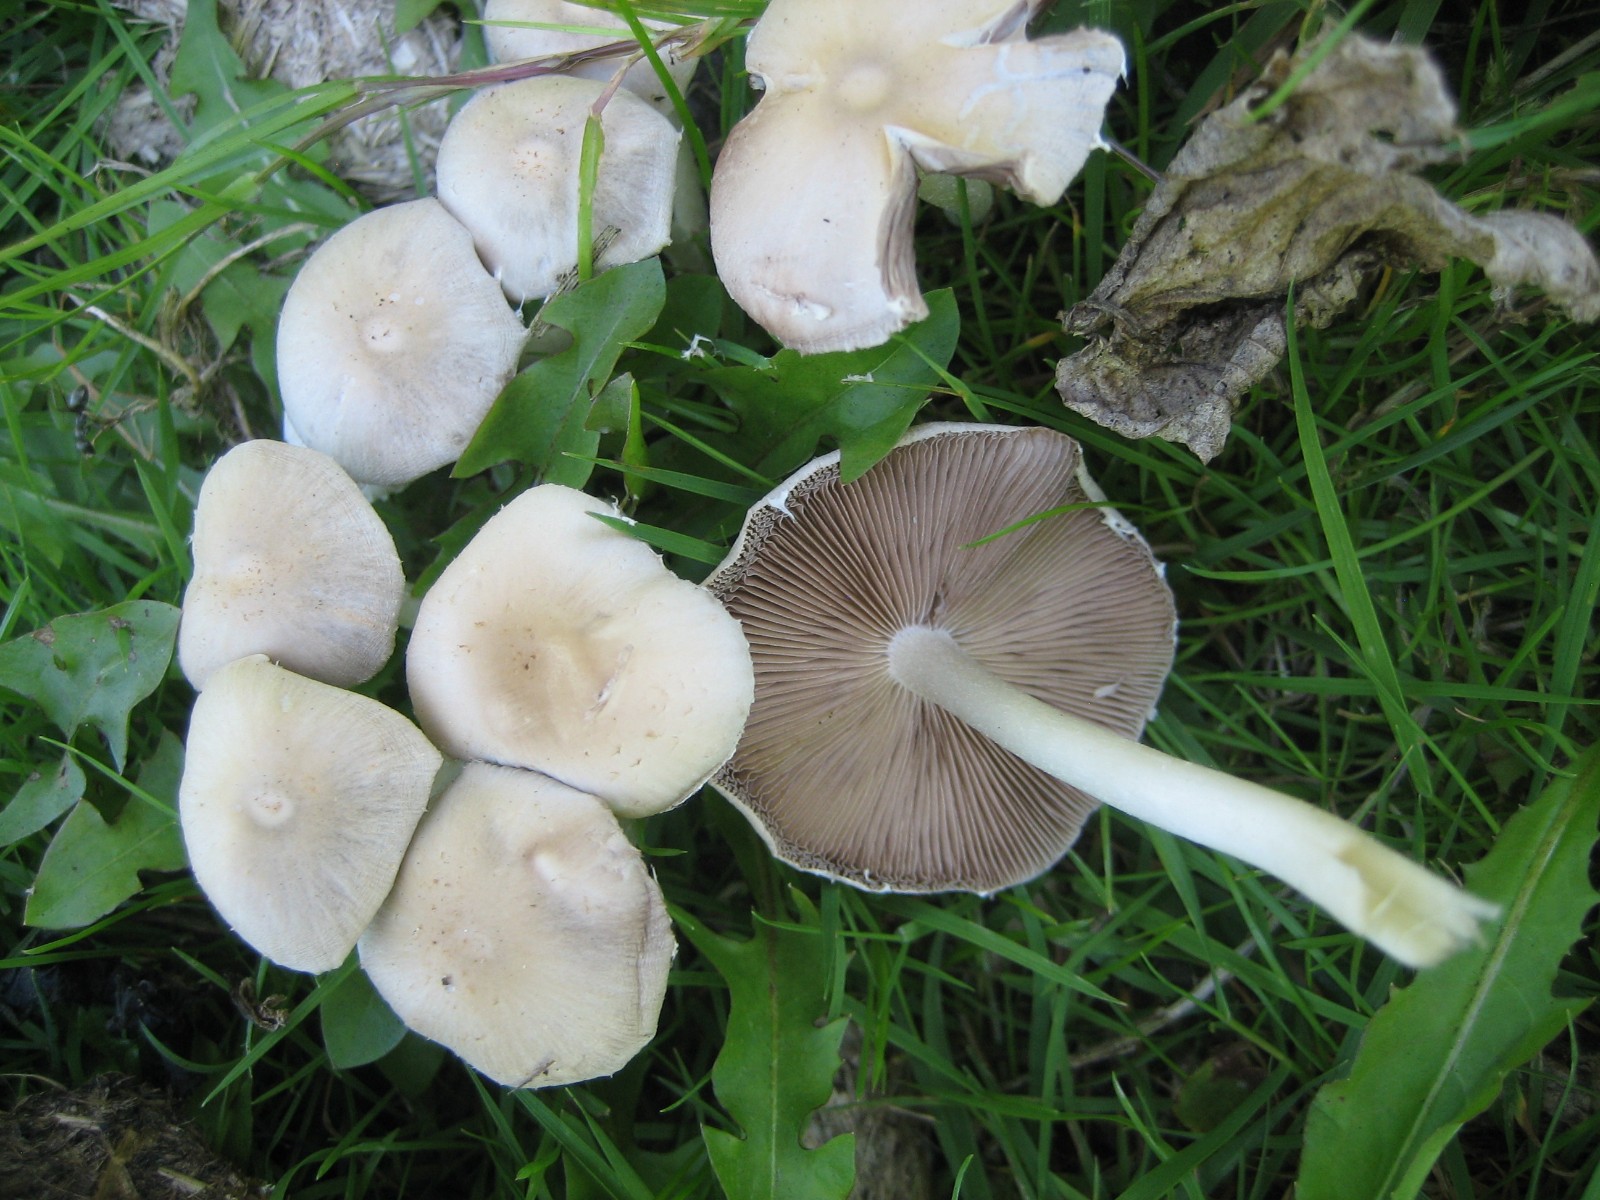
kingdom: Fungi
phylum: Basidiomycota
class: Agaricomycetes
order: Agaricales
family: Psathyrellaceae
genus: Candolleomyces
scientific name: Candolleomyces candolleanus
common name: Candolles mørkhat
